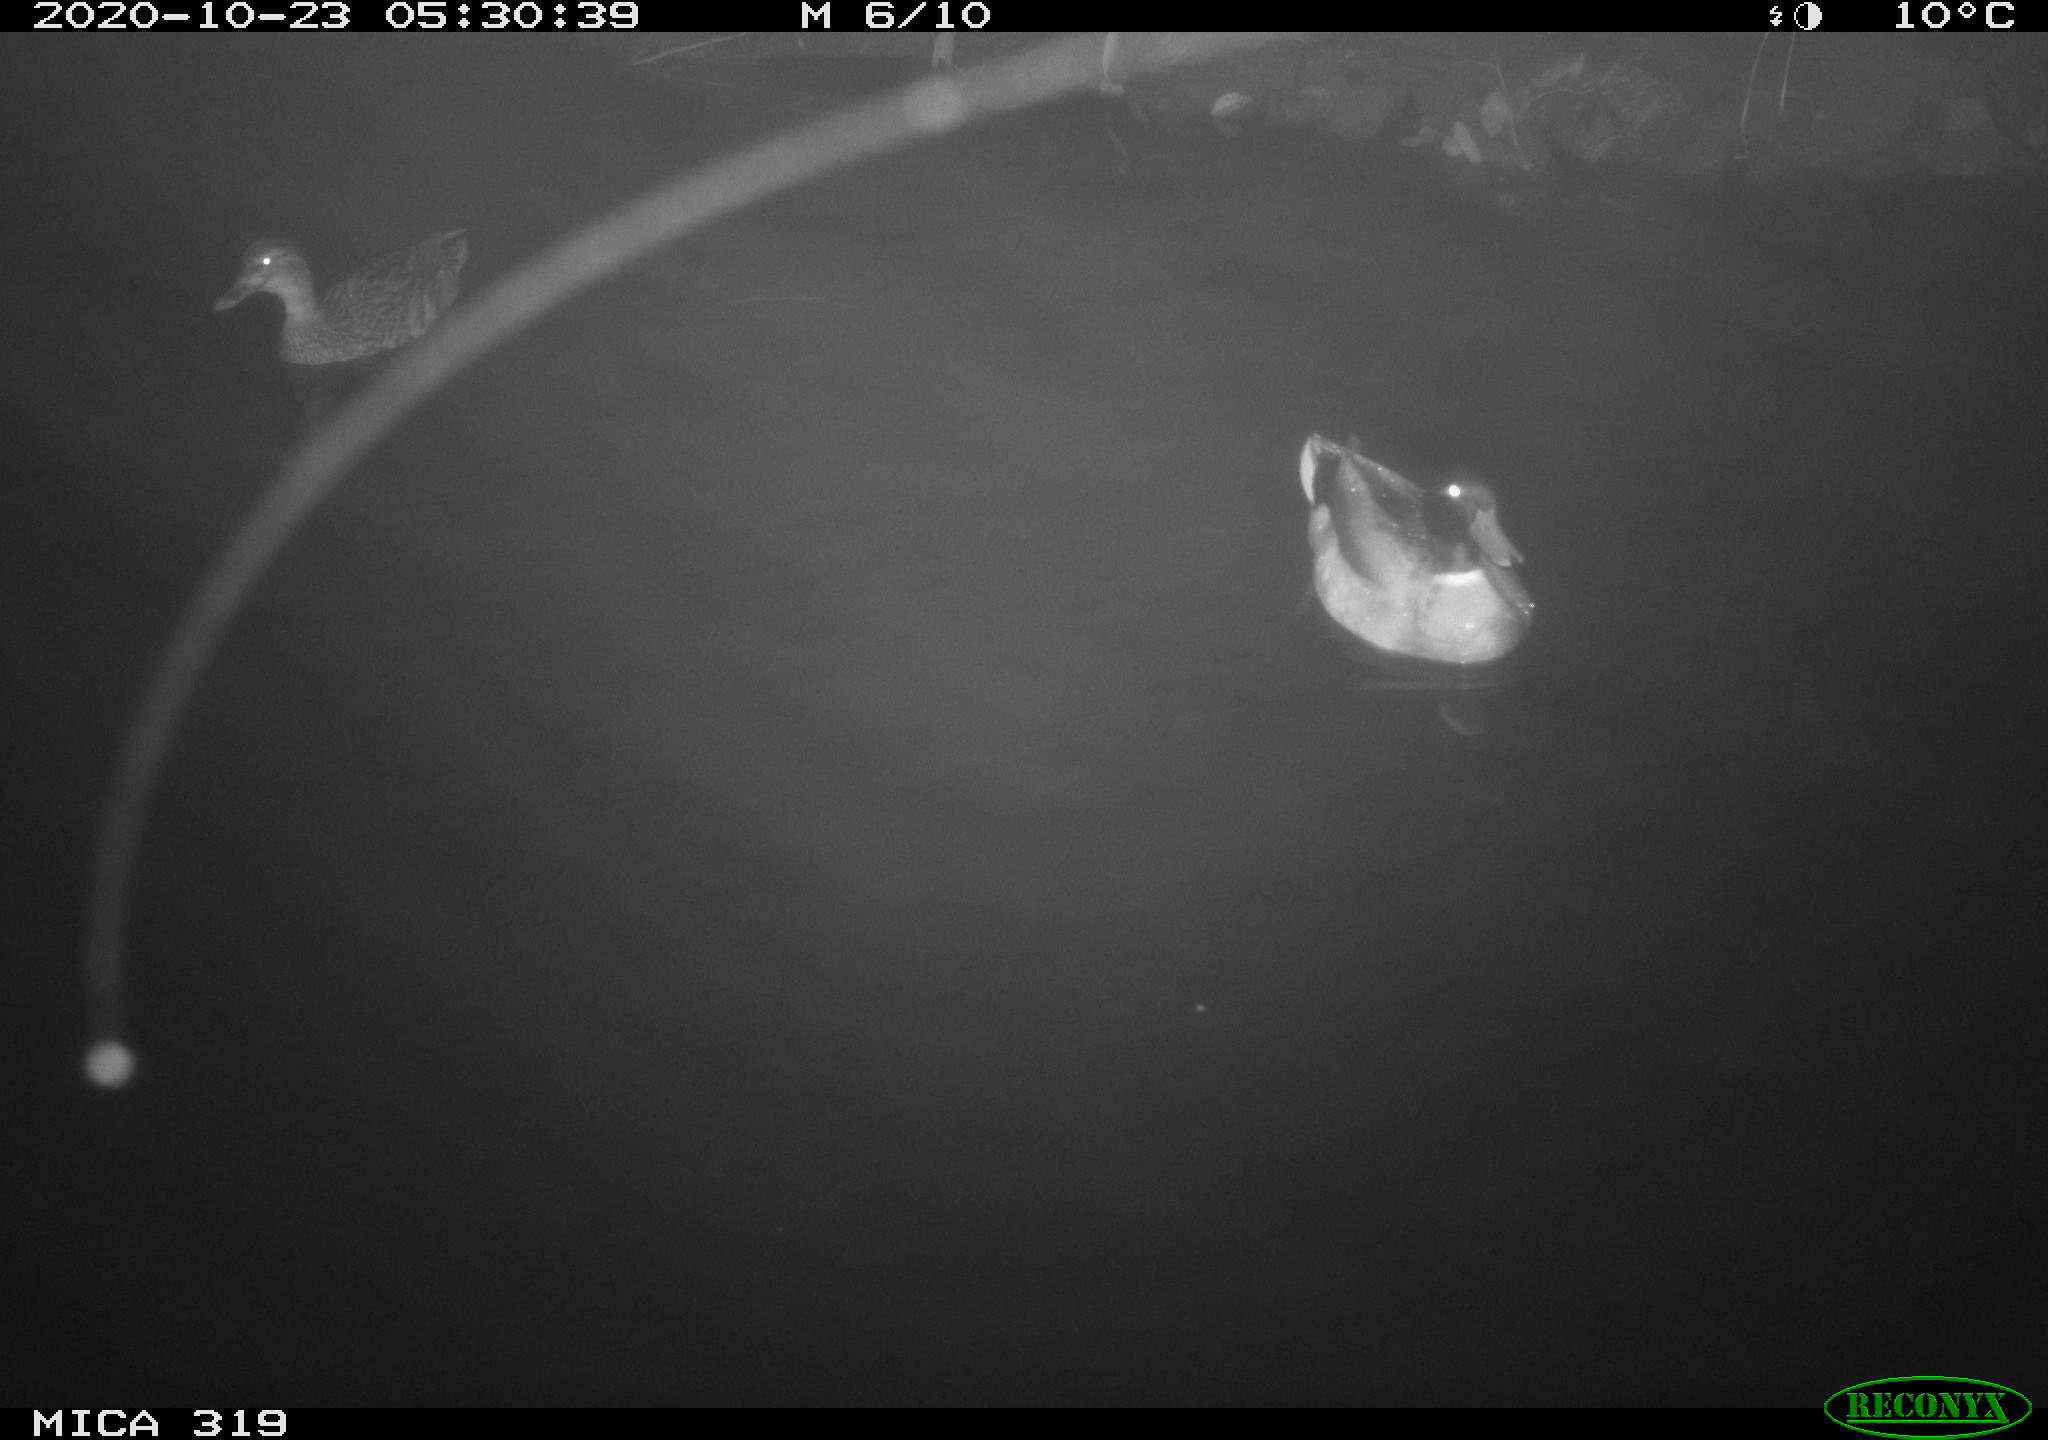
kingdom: Animalia
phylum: Chordata
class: Aves
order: Anseriformes
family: Anatidae
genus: Anas
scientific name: Anas platyrhynchos
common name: Mallard
